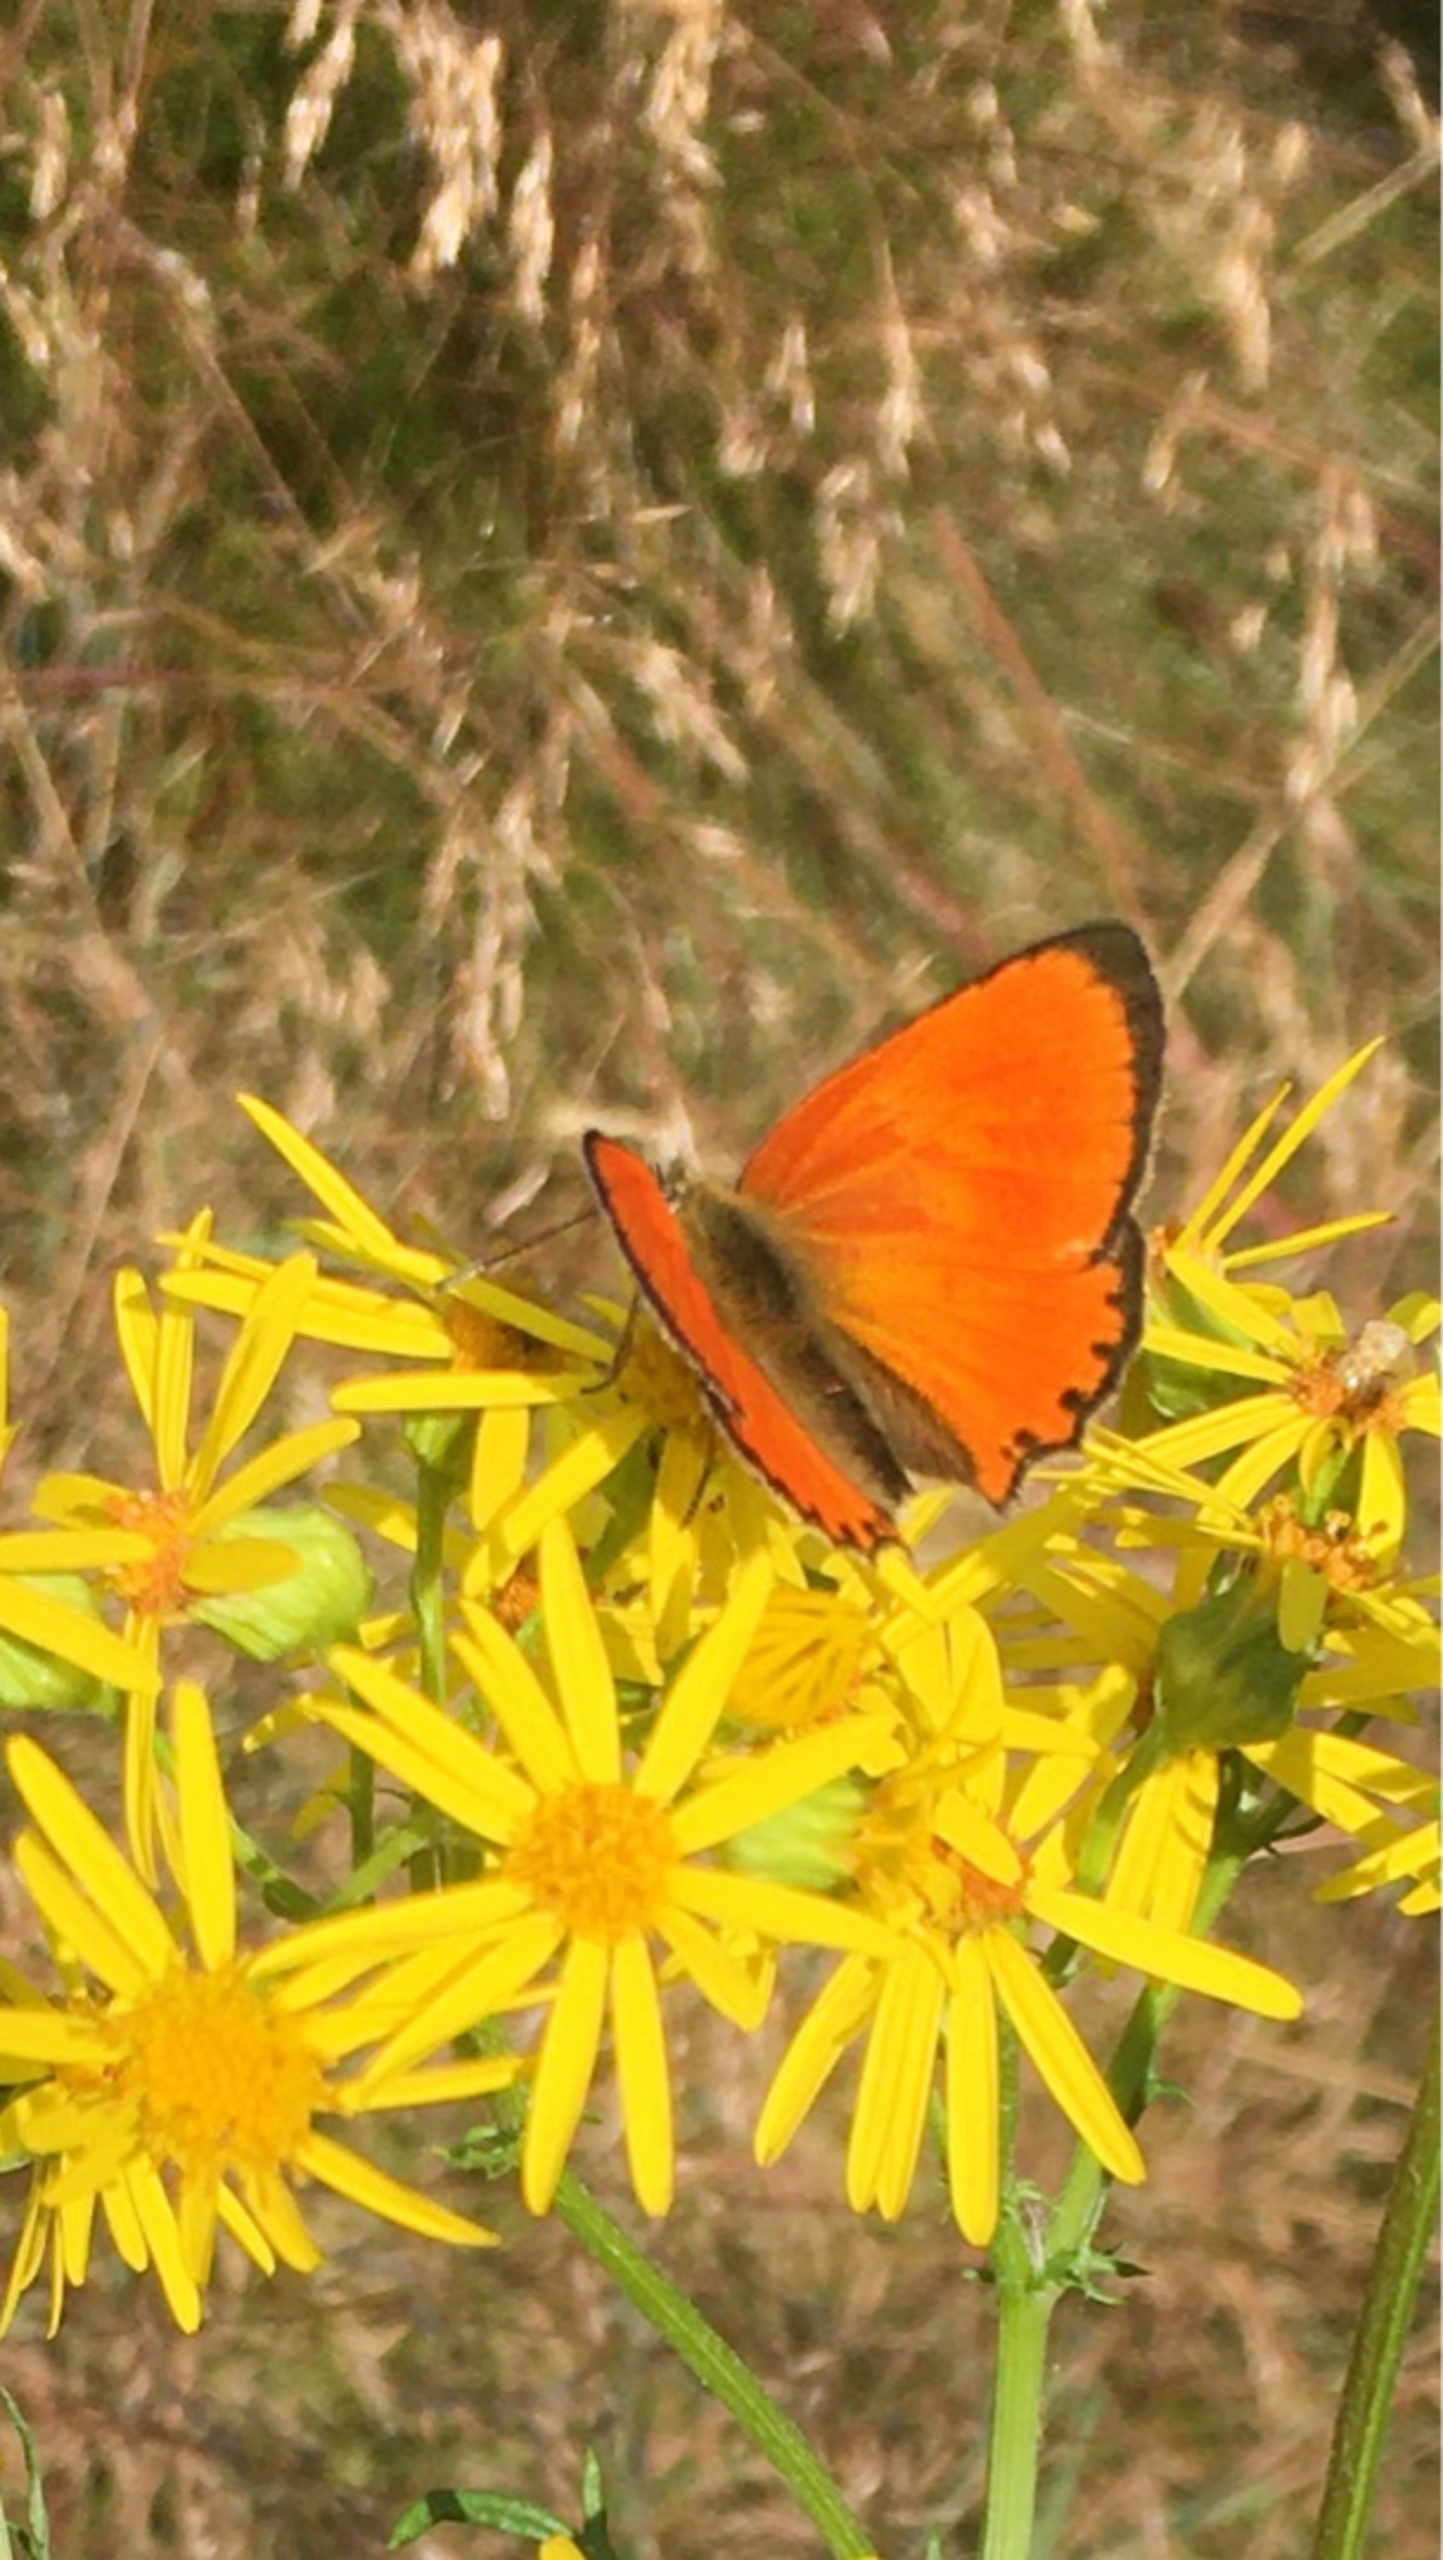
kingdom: Animalia
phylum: Arthropoda
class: Insecta
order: Lepidoptera
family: Lycaenidae
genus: Lycaena
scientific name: Lycaena virgaureae
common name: Dukatsommerfugl
